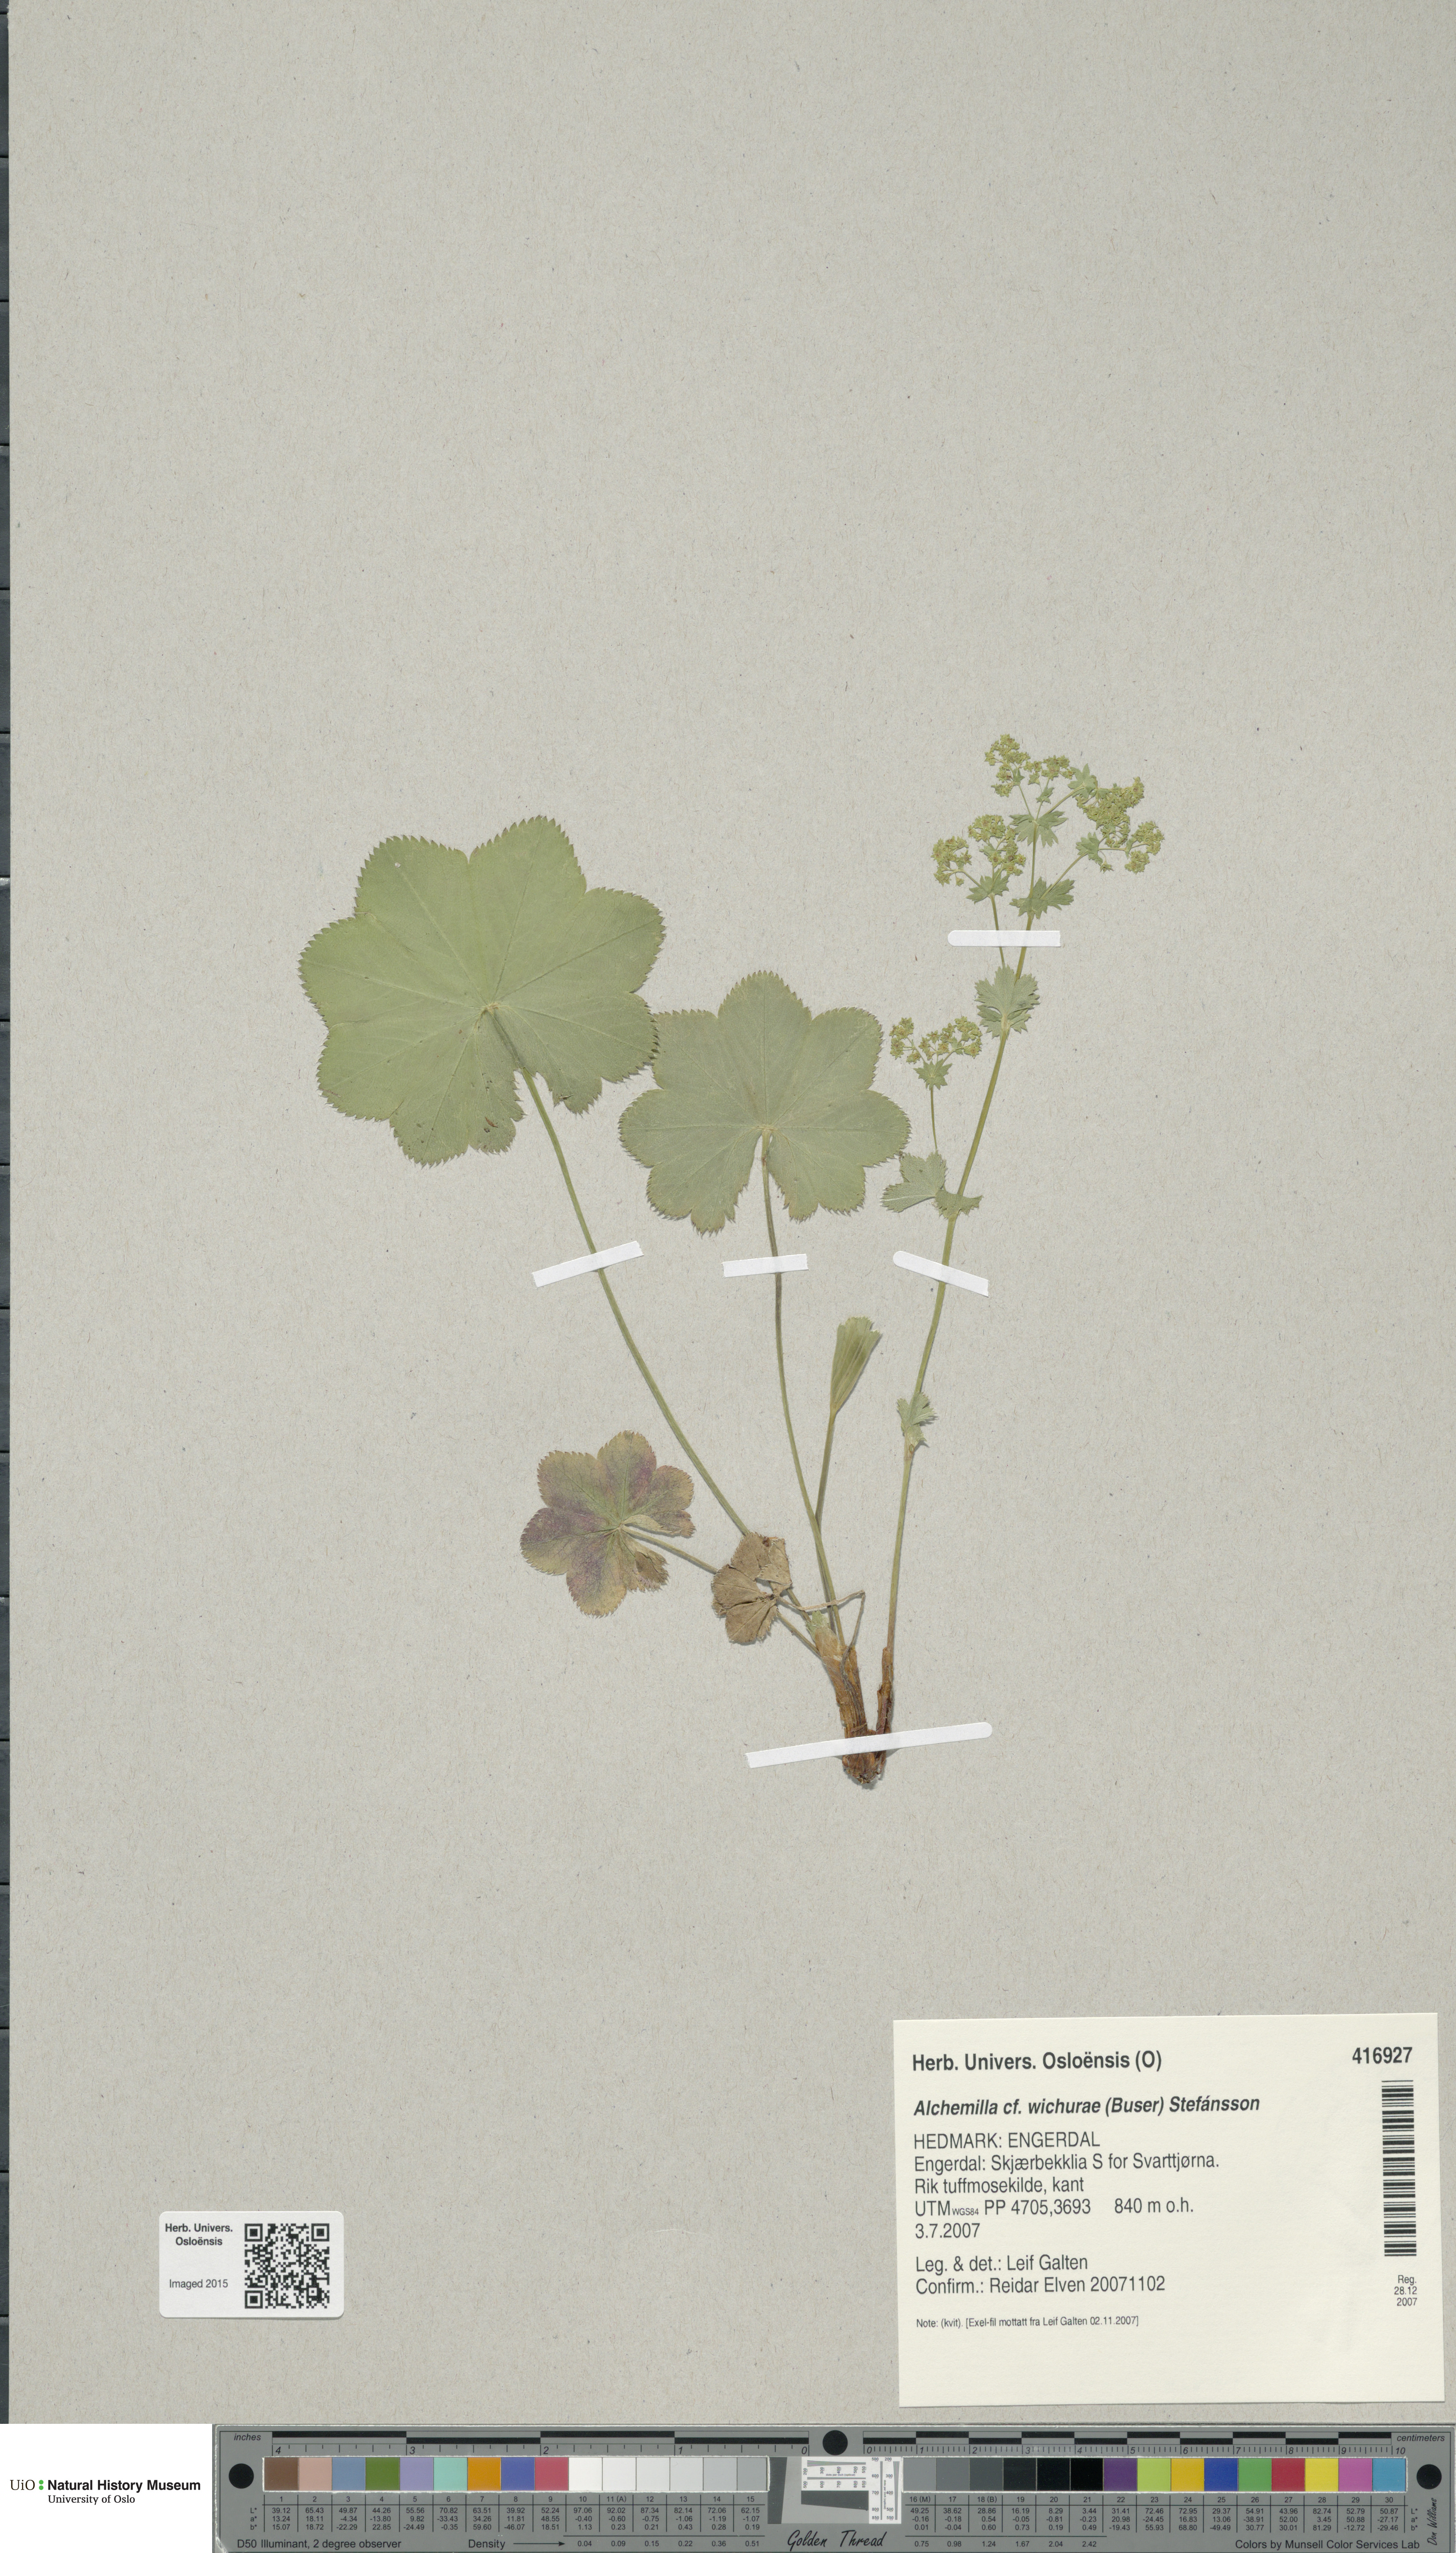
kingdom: Plantae
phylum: Tracheophyta
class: Magnoliopsida
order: Rosales
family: Rosaceae
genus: Alchemilla
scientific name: Alchemilla wichurae
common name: Rock lady's mantle
